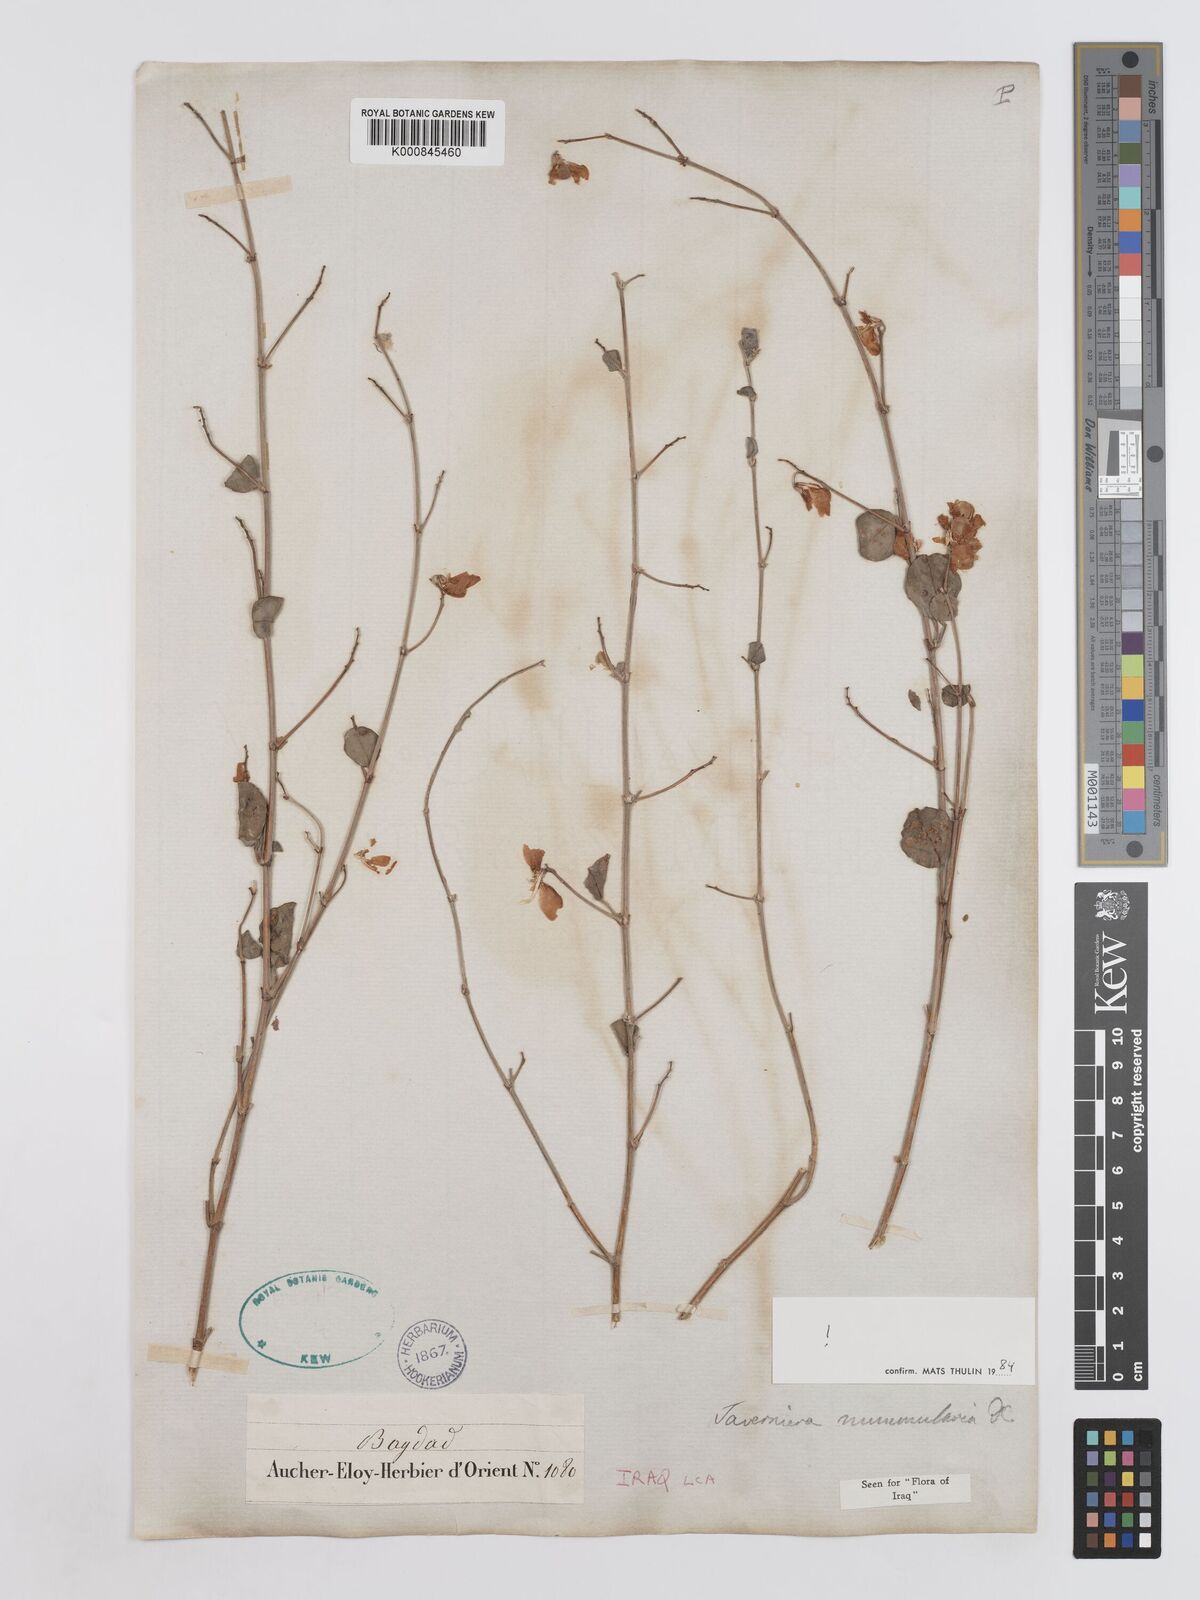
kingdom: Plantae
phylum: Tracheophyta
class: Magnoliopsida
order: Fabales
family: Fabaceae
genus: Taverniera
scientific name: Taverniera nummularia
